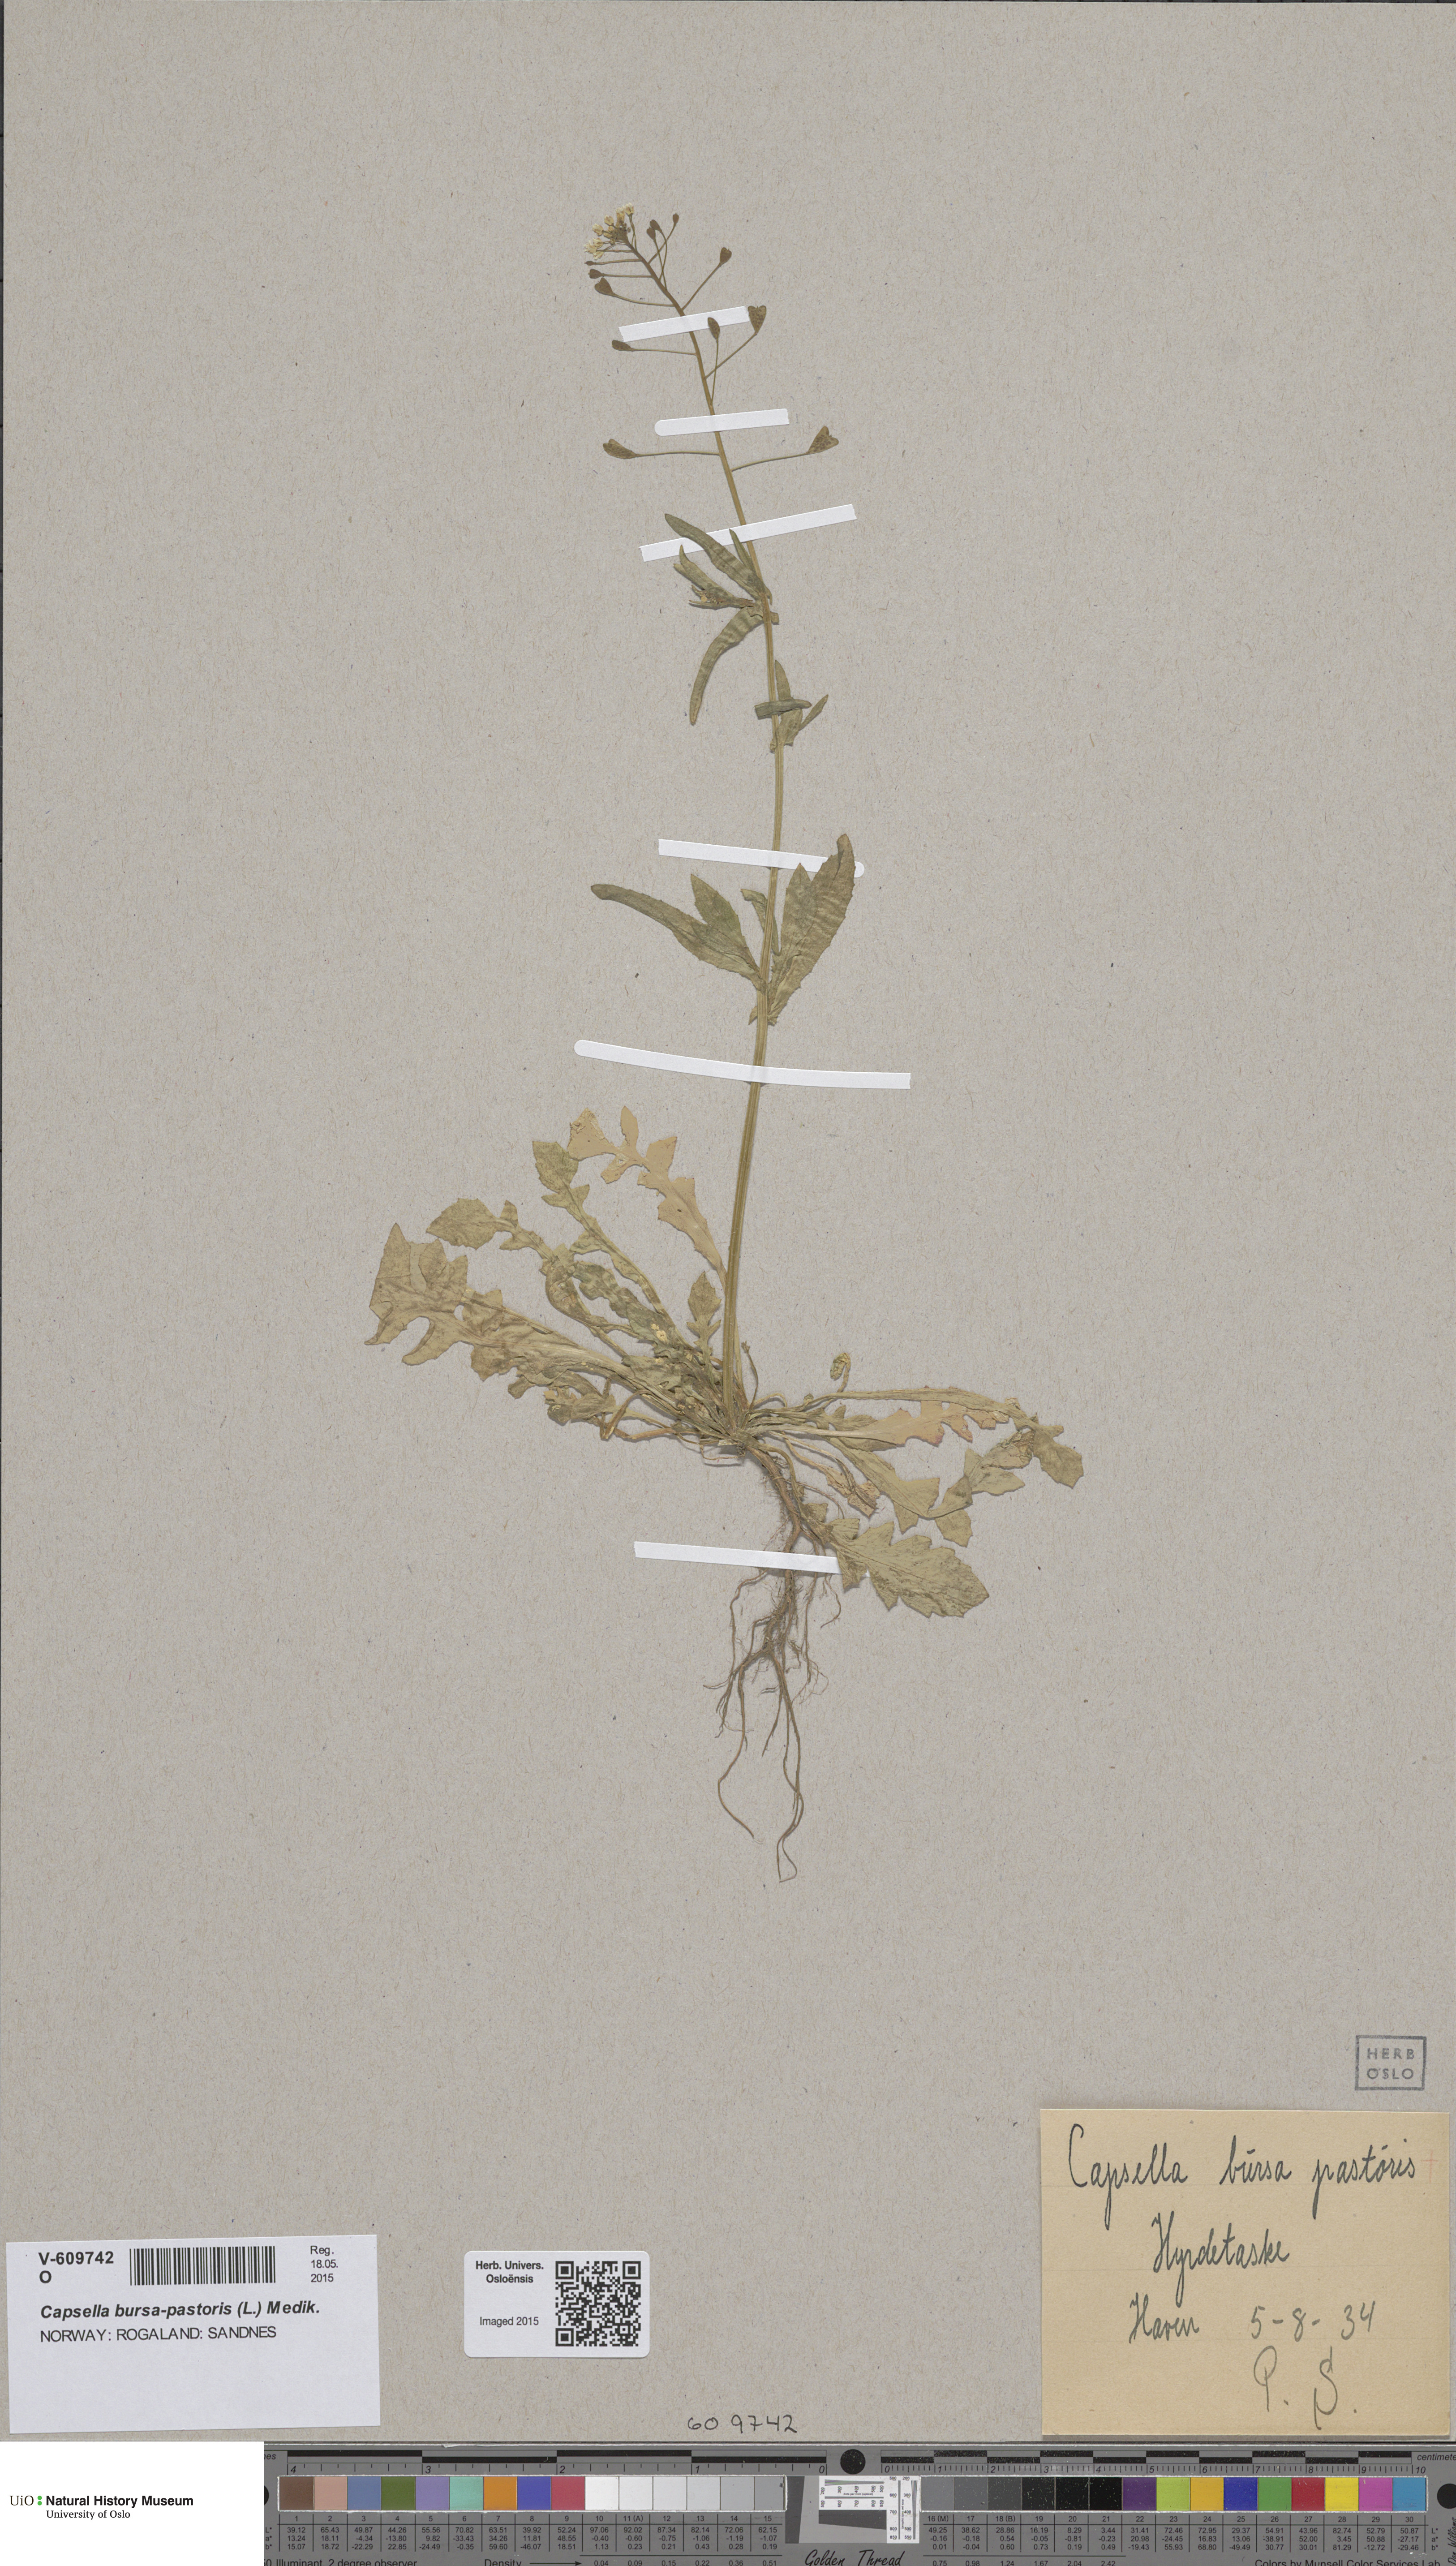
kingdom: Plantae
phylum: Tracheophyta
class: Magnoliopsida
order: Brassicales
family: Brassicaceae
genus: Capsella
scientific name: Capsella bursa-pastoris
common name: Shepherd's purse
